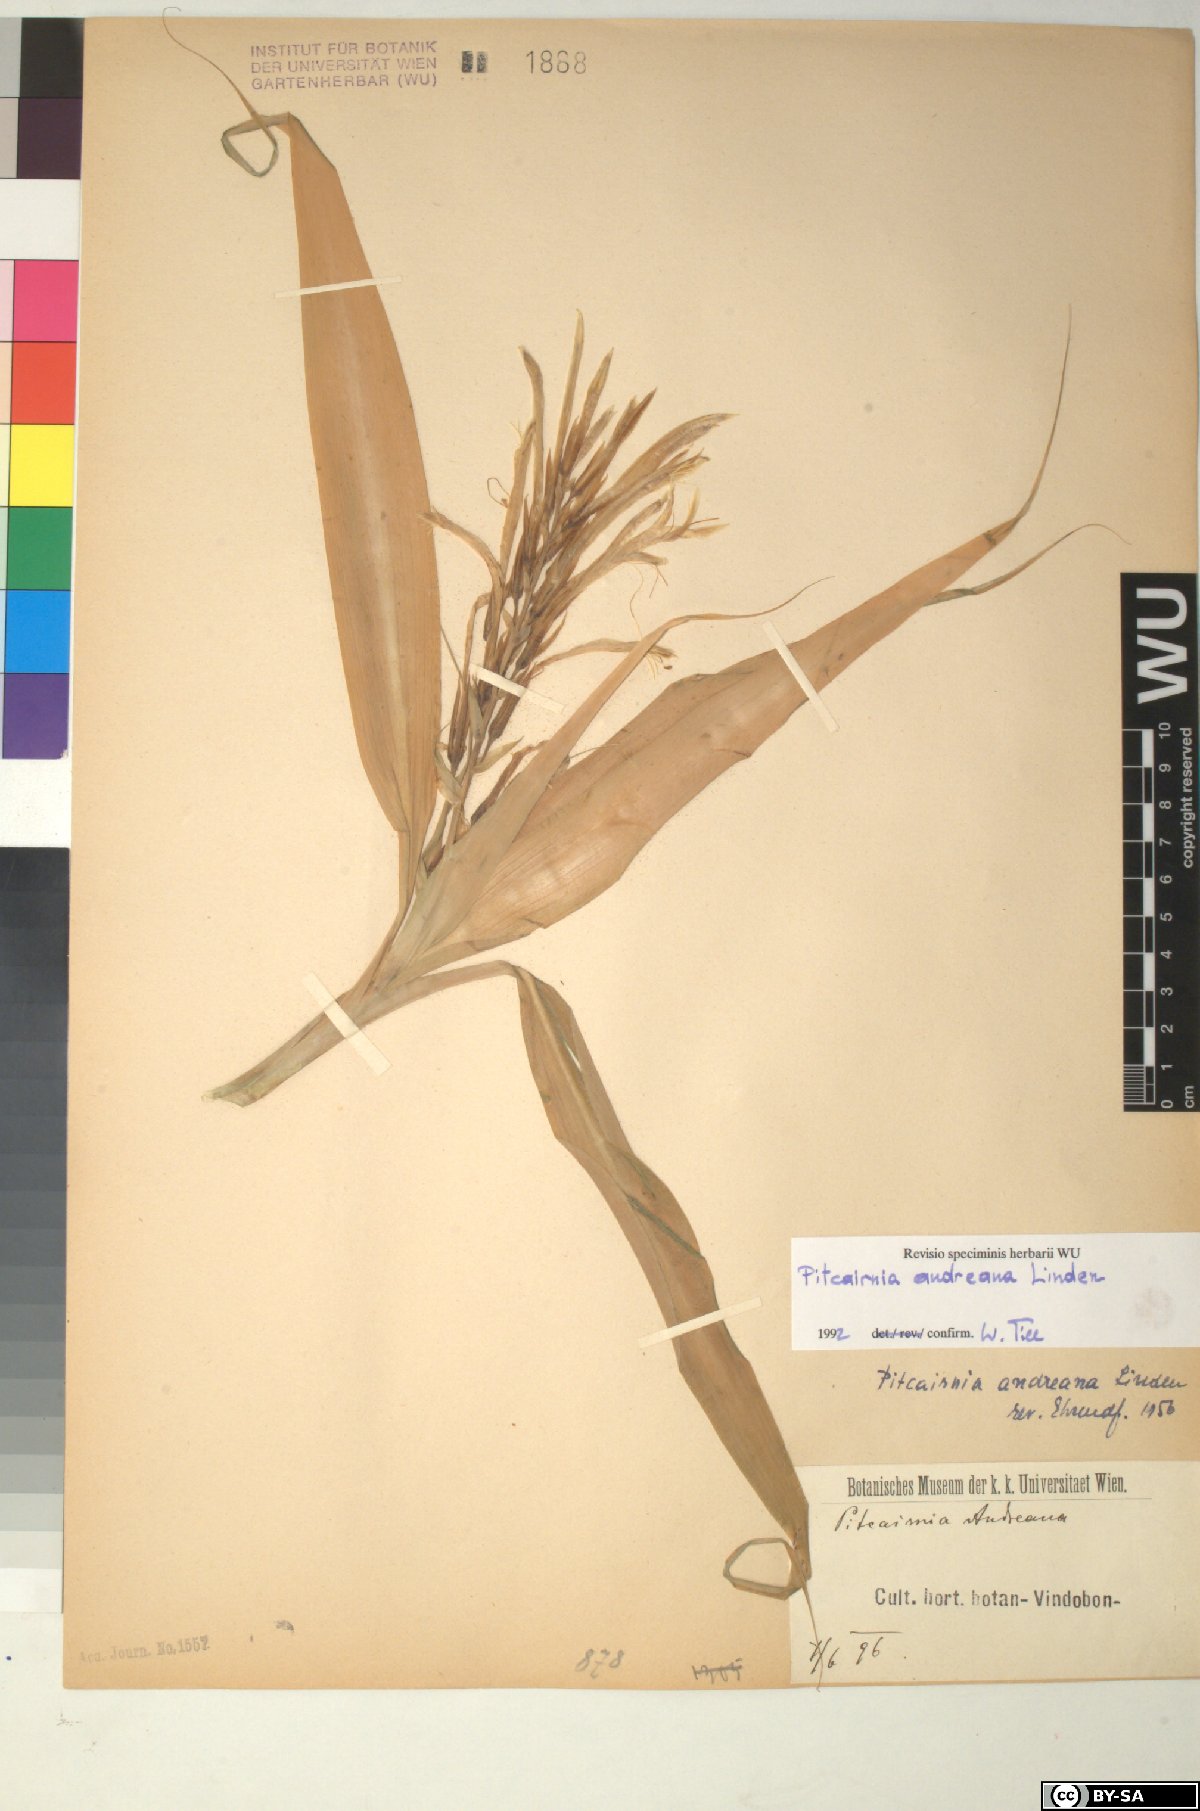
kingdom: Plantae
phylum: Tracheophyta
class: Liliopsida
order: Poales
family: Bromeliaceae
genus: Pitcairnia
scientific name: Pitcairnia
